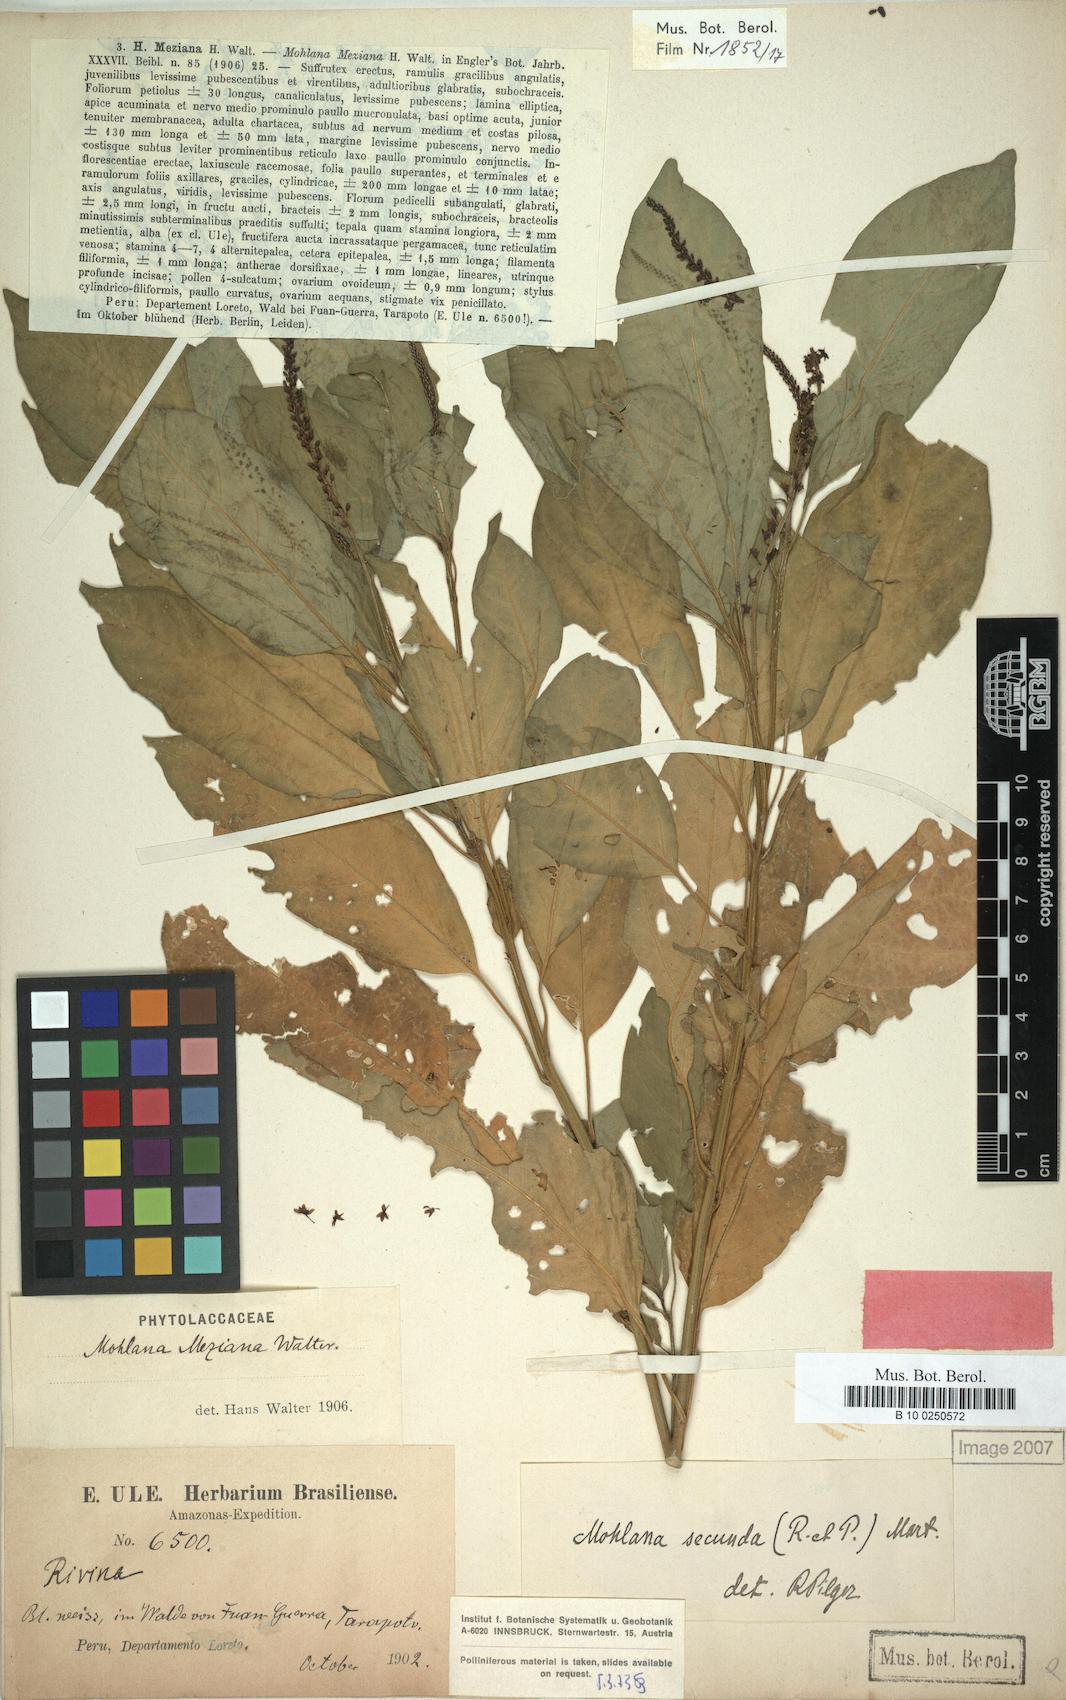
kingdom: Plantae
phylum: Tracheophyta
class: Magnoliopsida
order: Caryophyllales
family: Phytolaccaceae
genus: Hilleria
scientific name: Hilleria secunda
